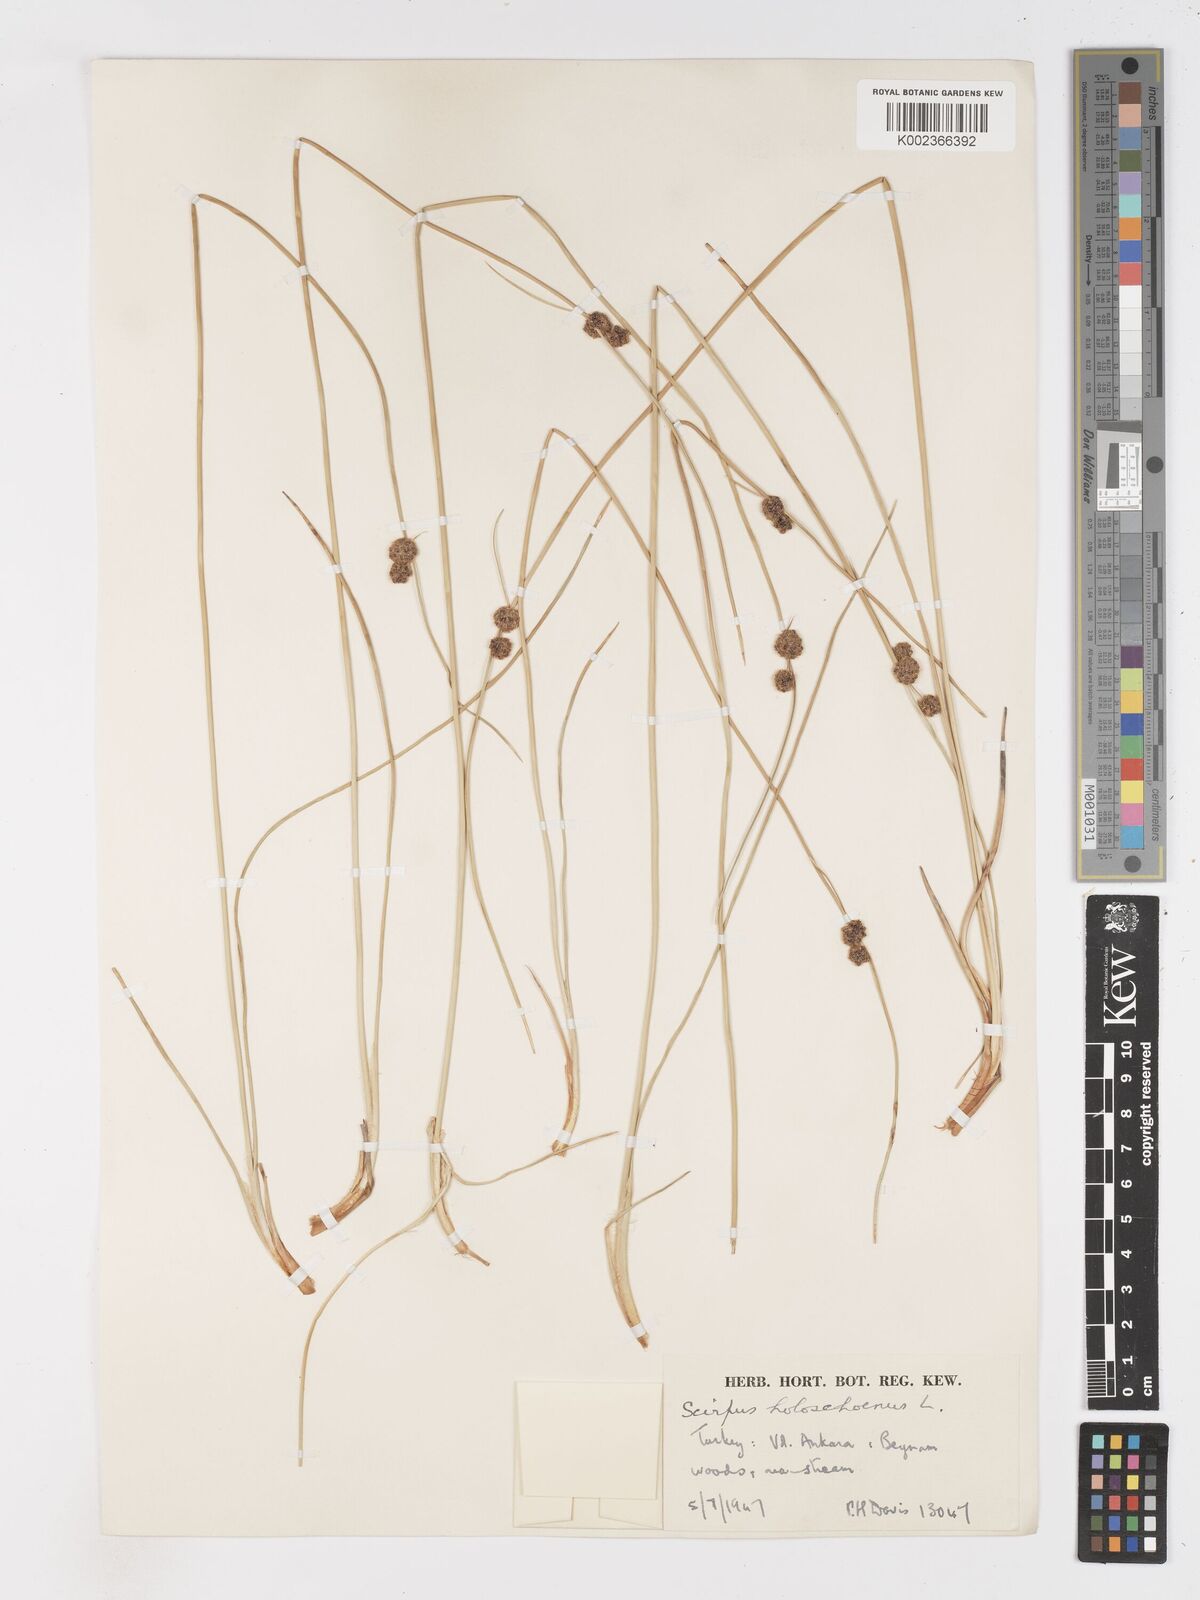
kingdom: Plantae
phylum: Tracheophyta
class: Liliopsida
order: Poales
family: Cyperaceae
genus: Scirpoides
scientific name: Scirpoides holoschoenus
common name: Round-headed club-rush
